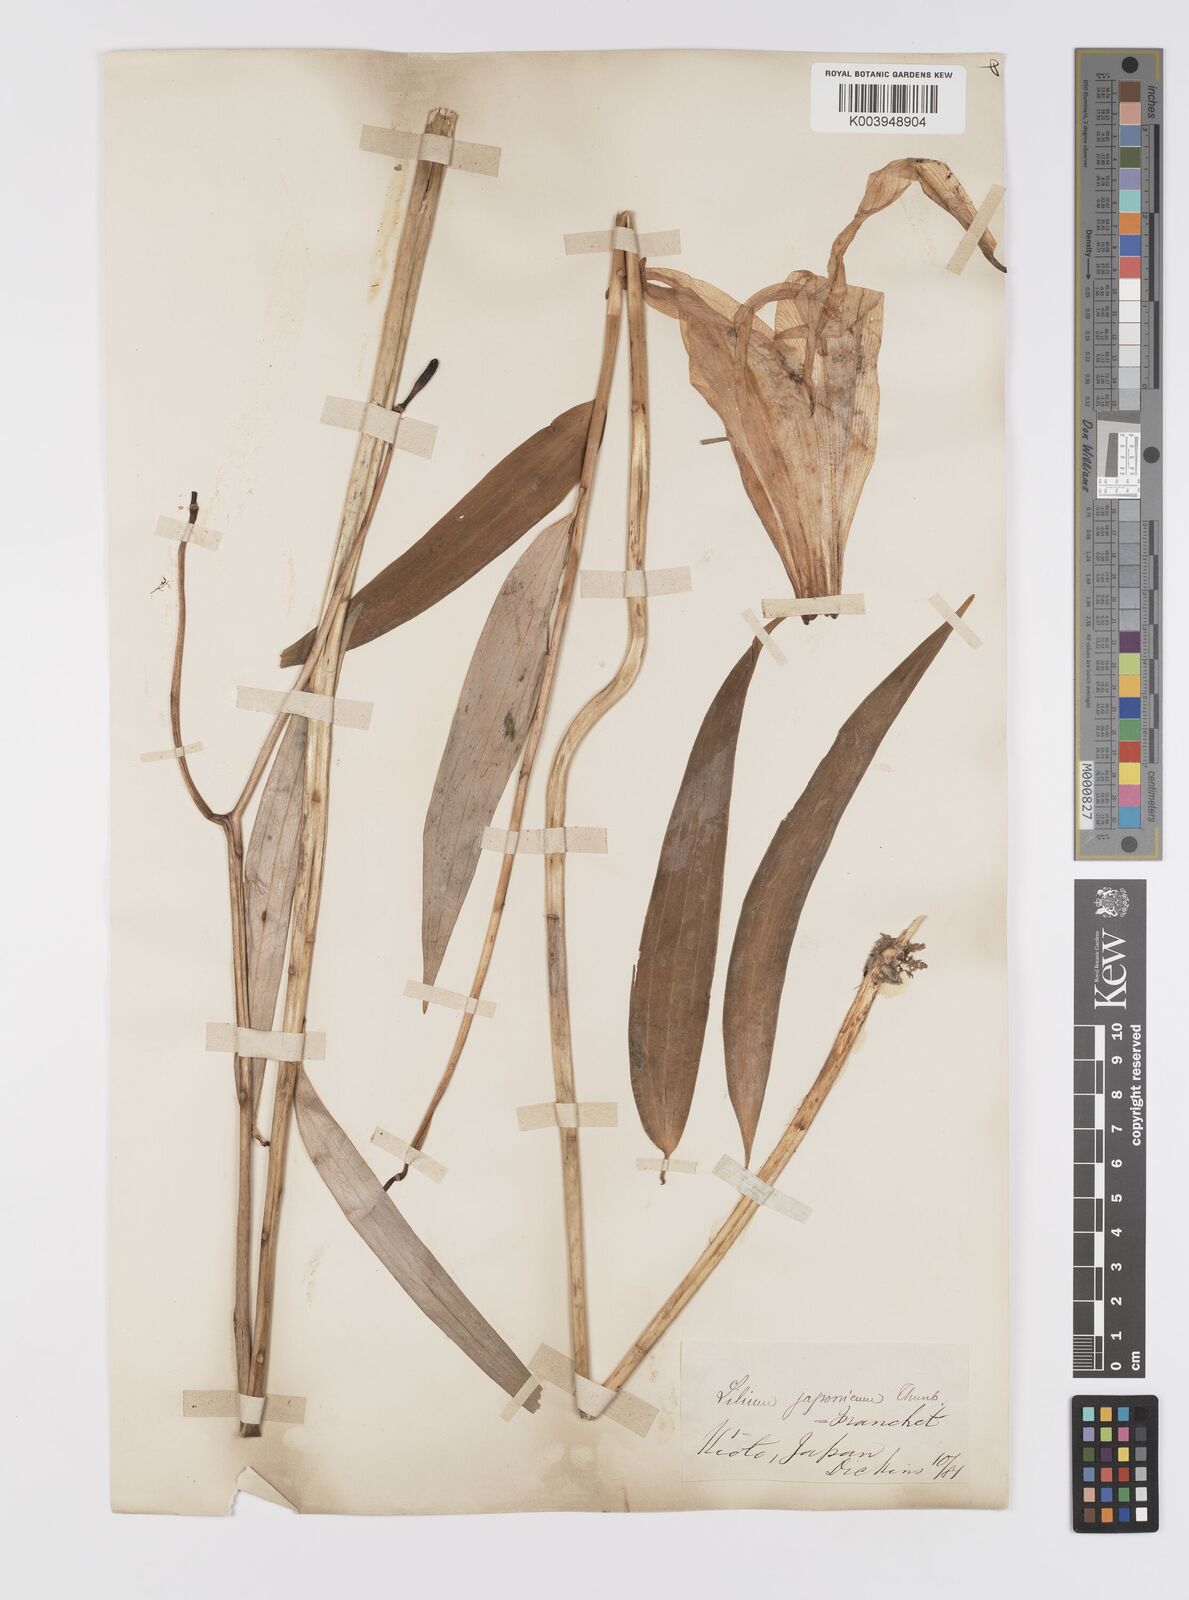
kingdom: Plantae
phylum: Tracheophyta
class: Liliopsida
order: Liliales
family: Liliaceae
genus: Lilium
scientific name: Lilium japonicum
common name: Japanese lily
